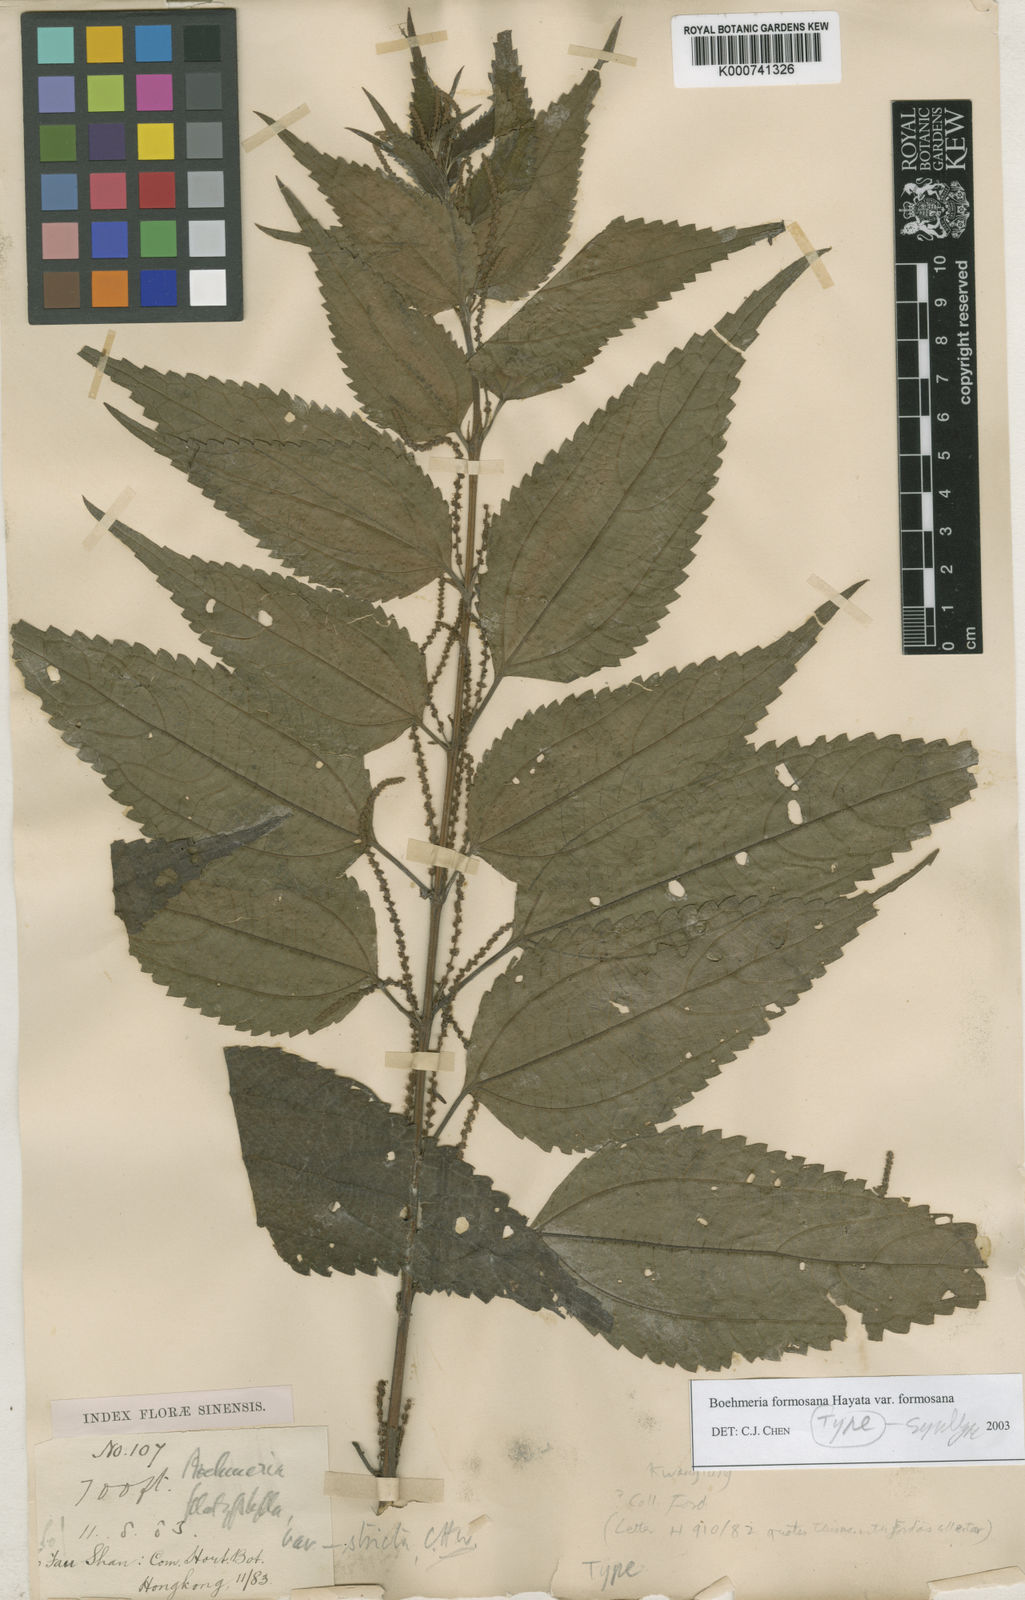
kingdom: Plantae
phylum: Tracheophyta
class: Magnoliopsida
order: Rosales
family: Urticaceae
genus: Boehmeria
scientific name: Boehmeria sieboldiana
